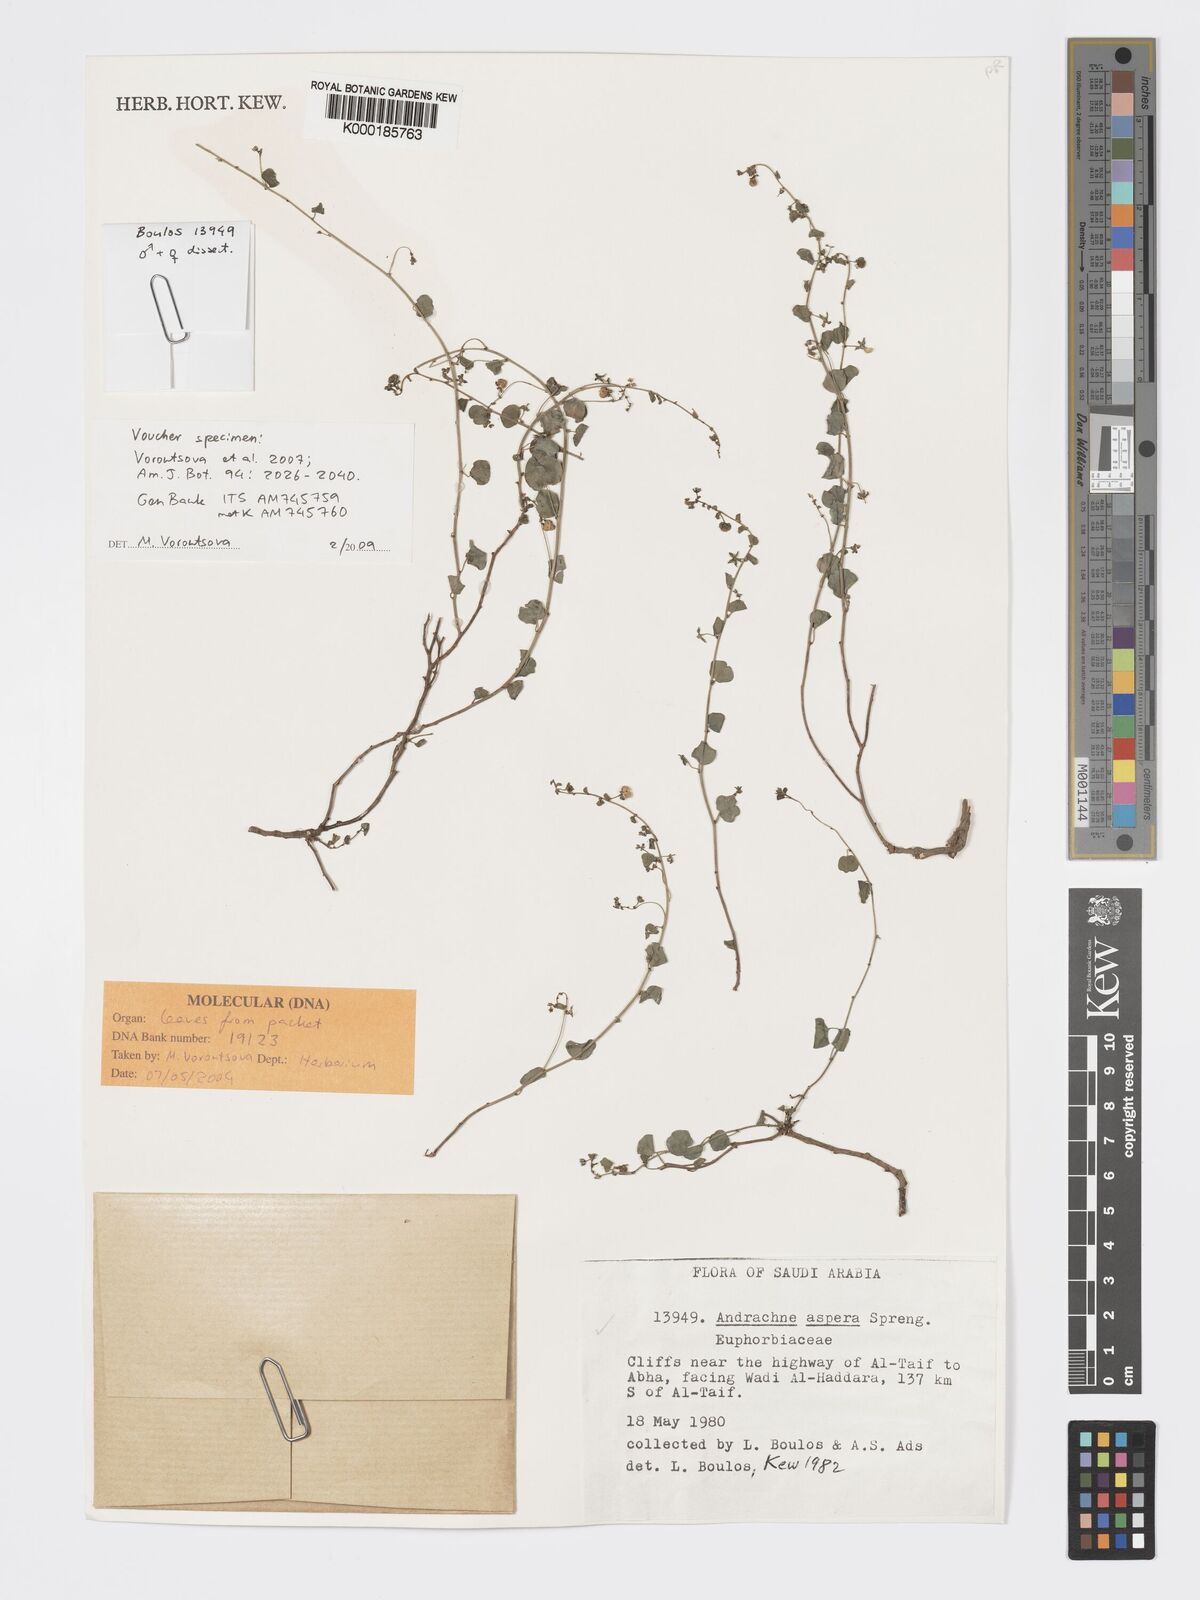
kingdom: Plantae
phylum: Tracheophyta
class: Magnoliopsida
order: Malpighiales
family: Phyllanthaceae
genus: Andrachne
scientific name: Andrachne aspera
